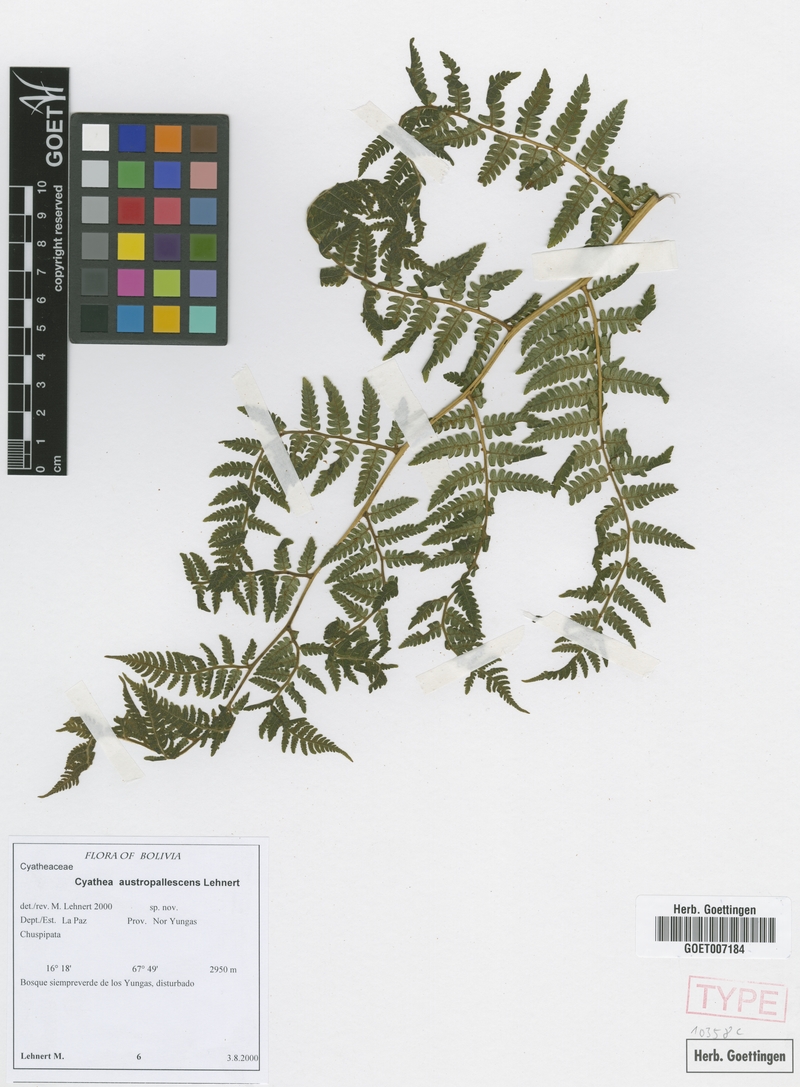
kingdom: Plantae
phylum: Tracheophyta
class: Polypodiopsida
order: Cyatheales
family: Cyatheaceae
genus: Cyathea
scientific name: Cyathea austropallescens
